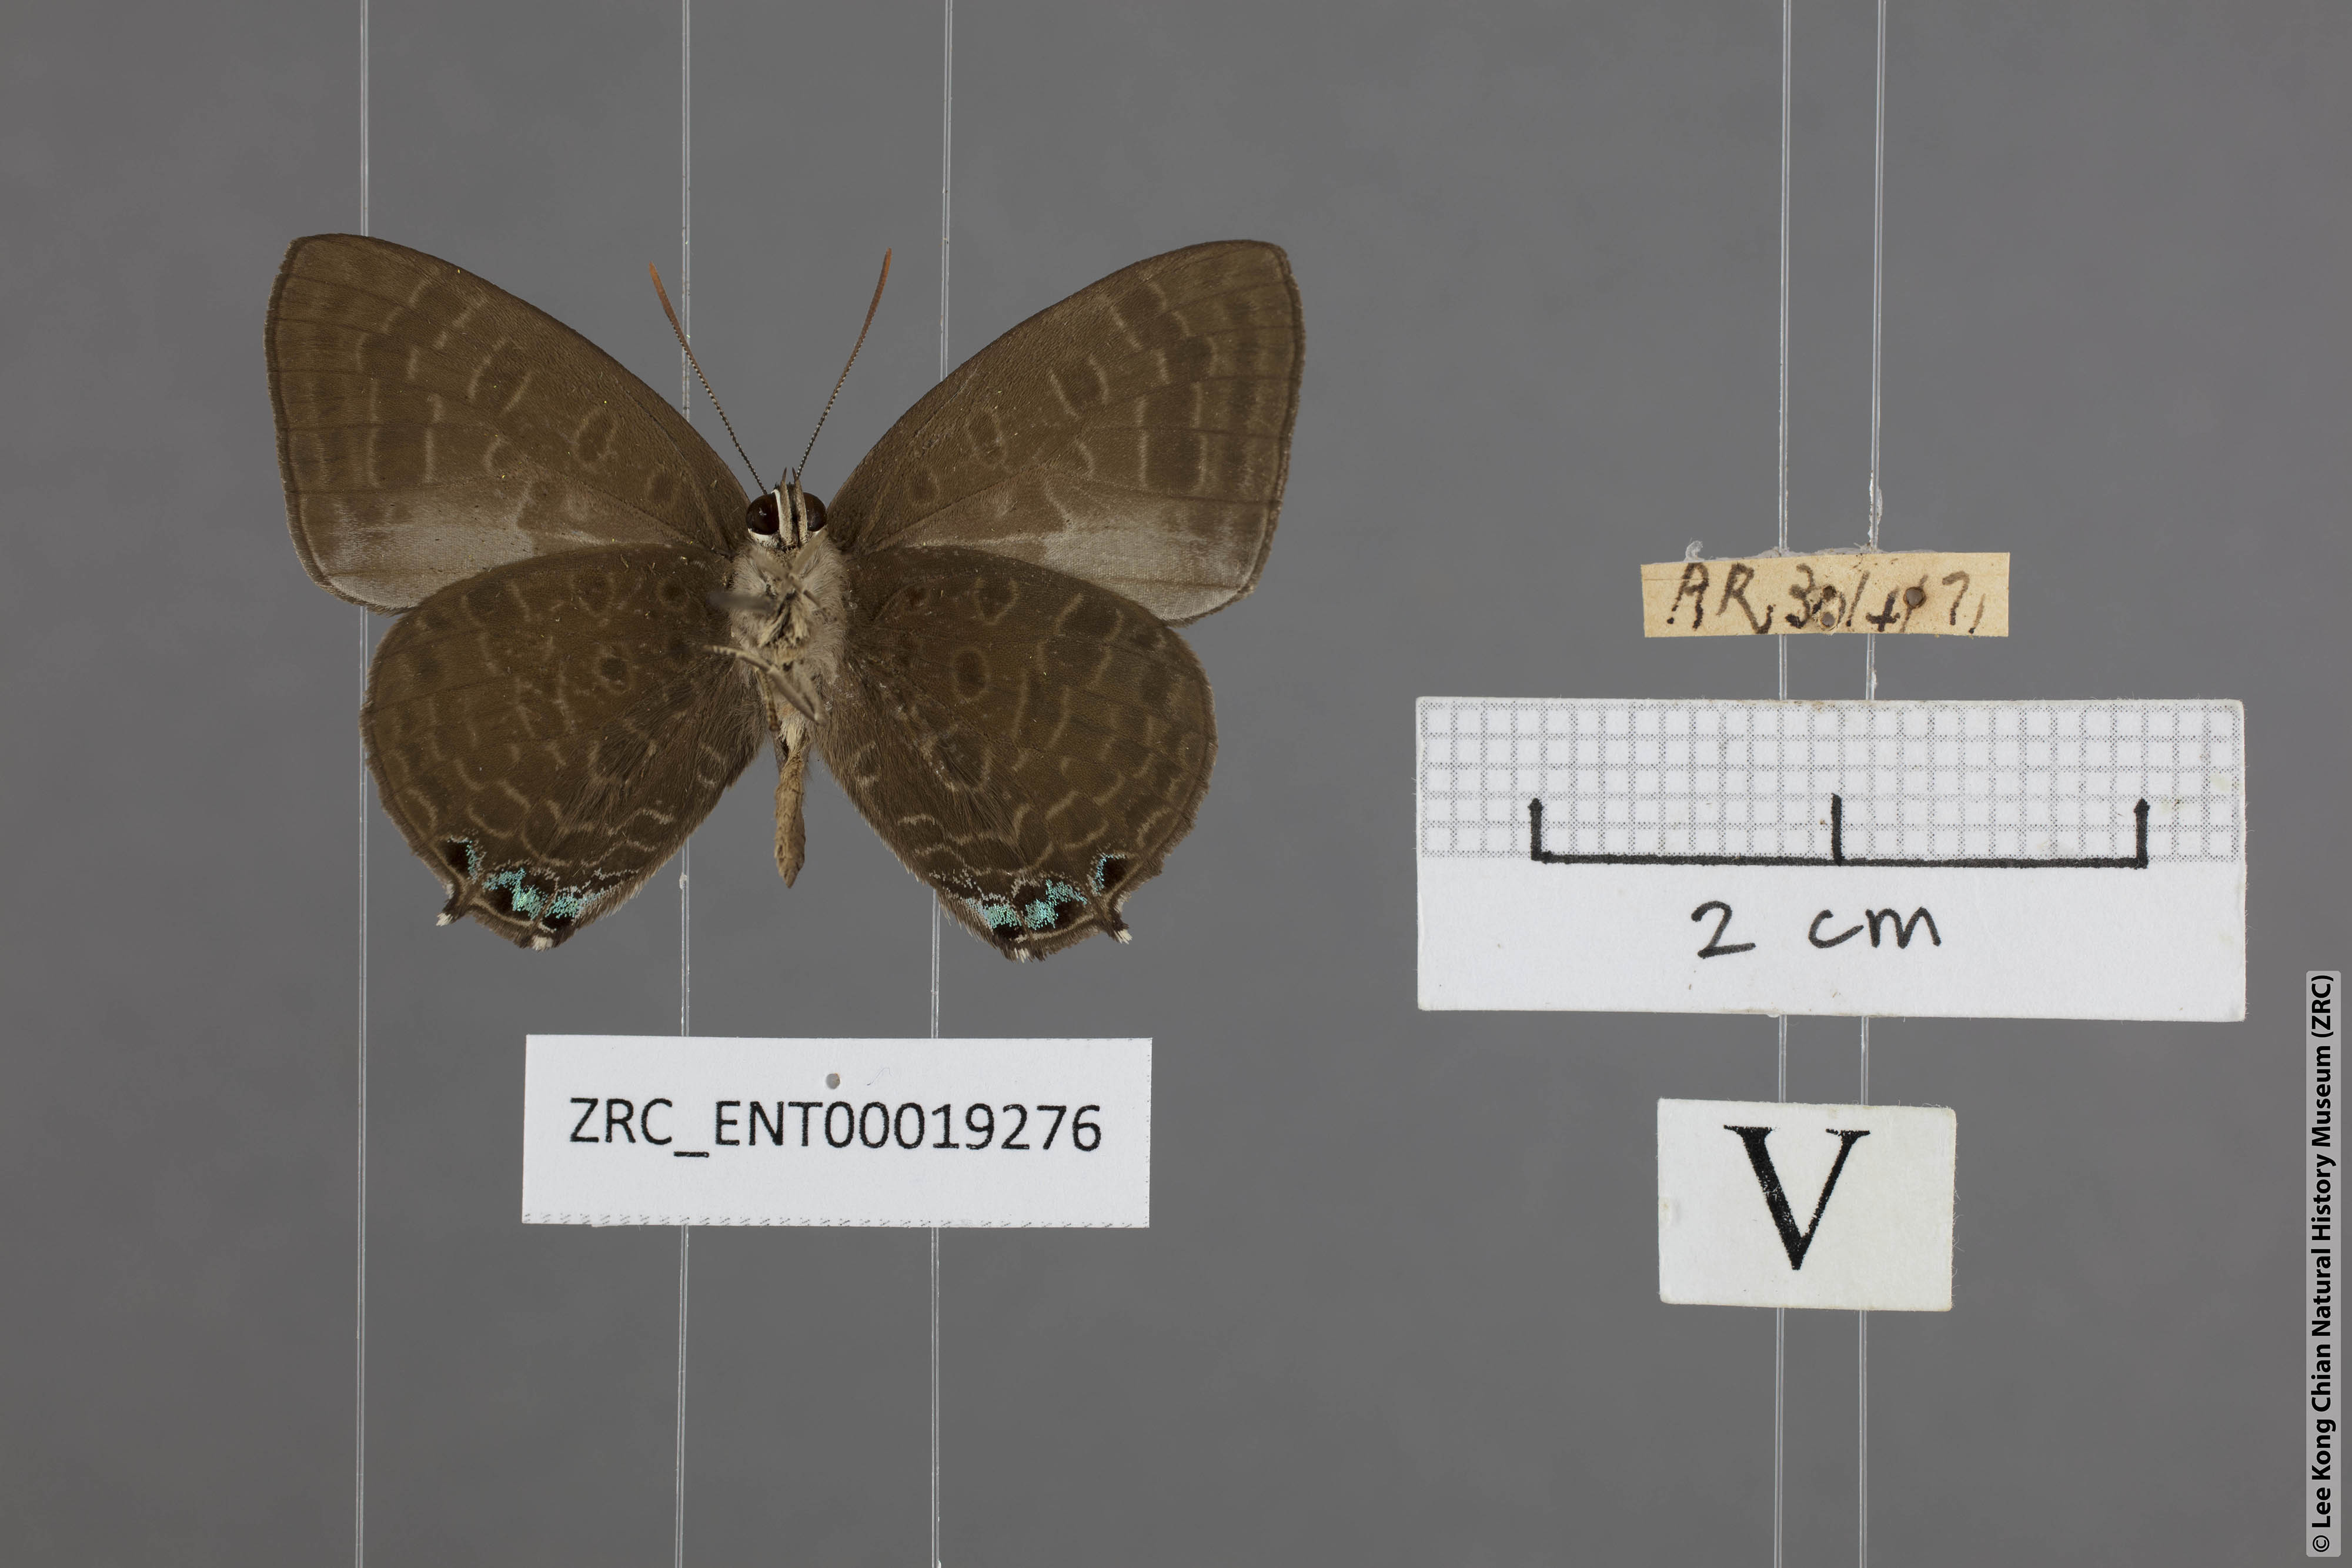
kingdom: Animalia
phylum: Arthropoda
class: Insecta
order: Lepidoptera
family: Lycaenidae
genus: Arhopala
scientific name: Arhopala aurea
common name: Long-celled oakblue
